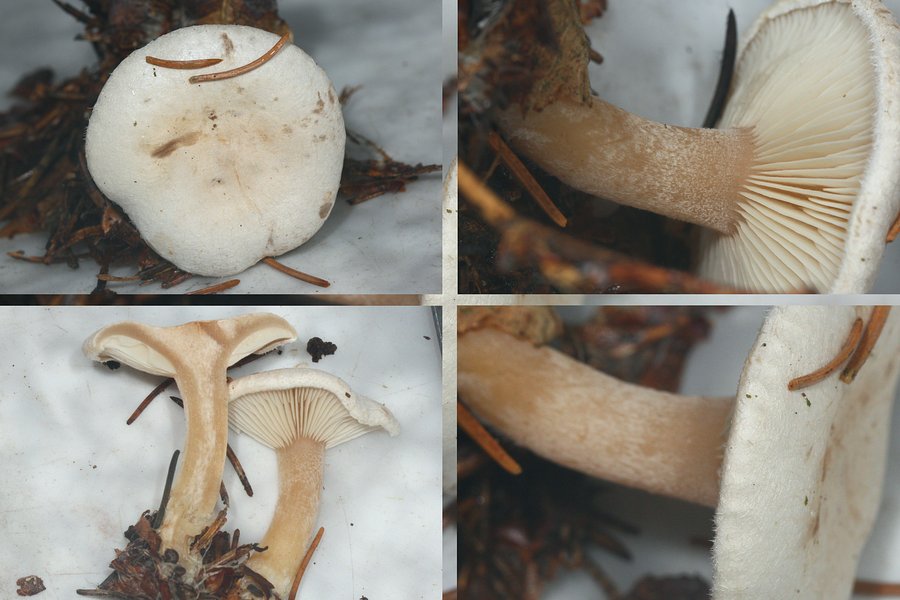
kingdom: Fungi
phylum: Basidiomycota
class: Agaricomycetes
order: Agaricales
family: Tricholomataceae
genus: Ripartites
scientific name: Ripartites tricholoma
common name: almindelig skæghat
